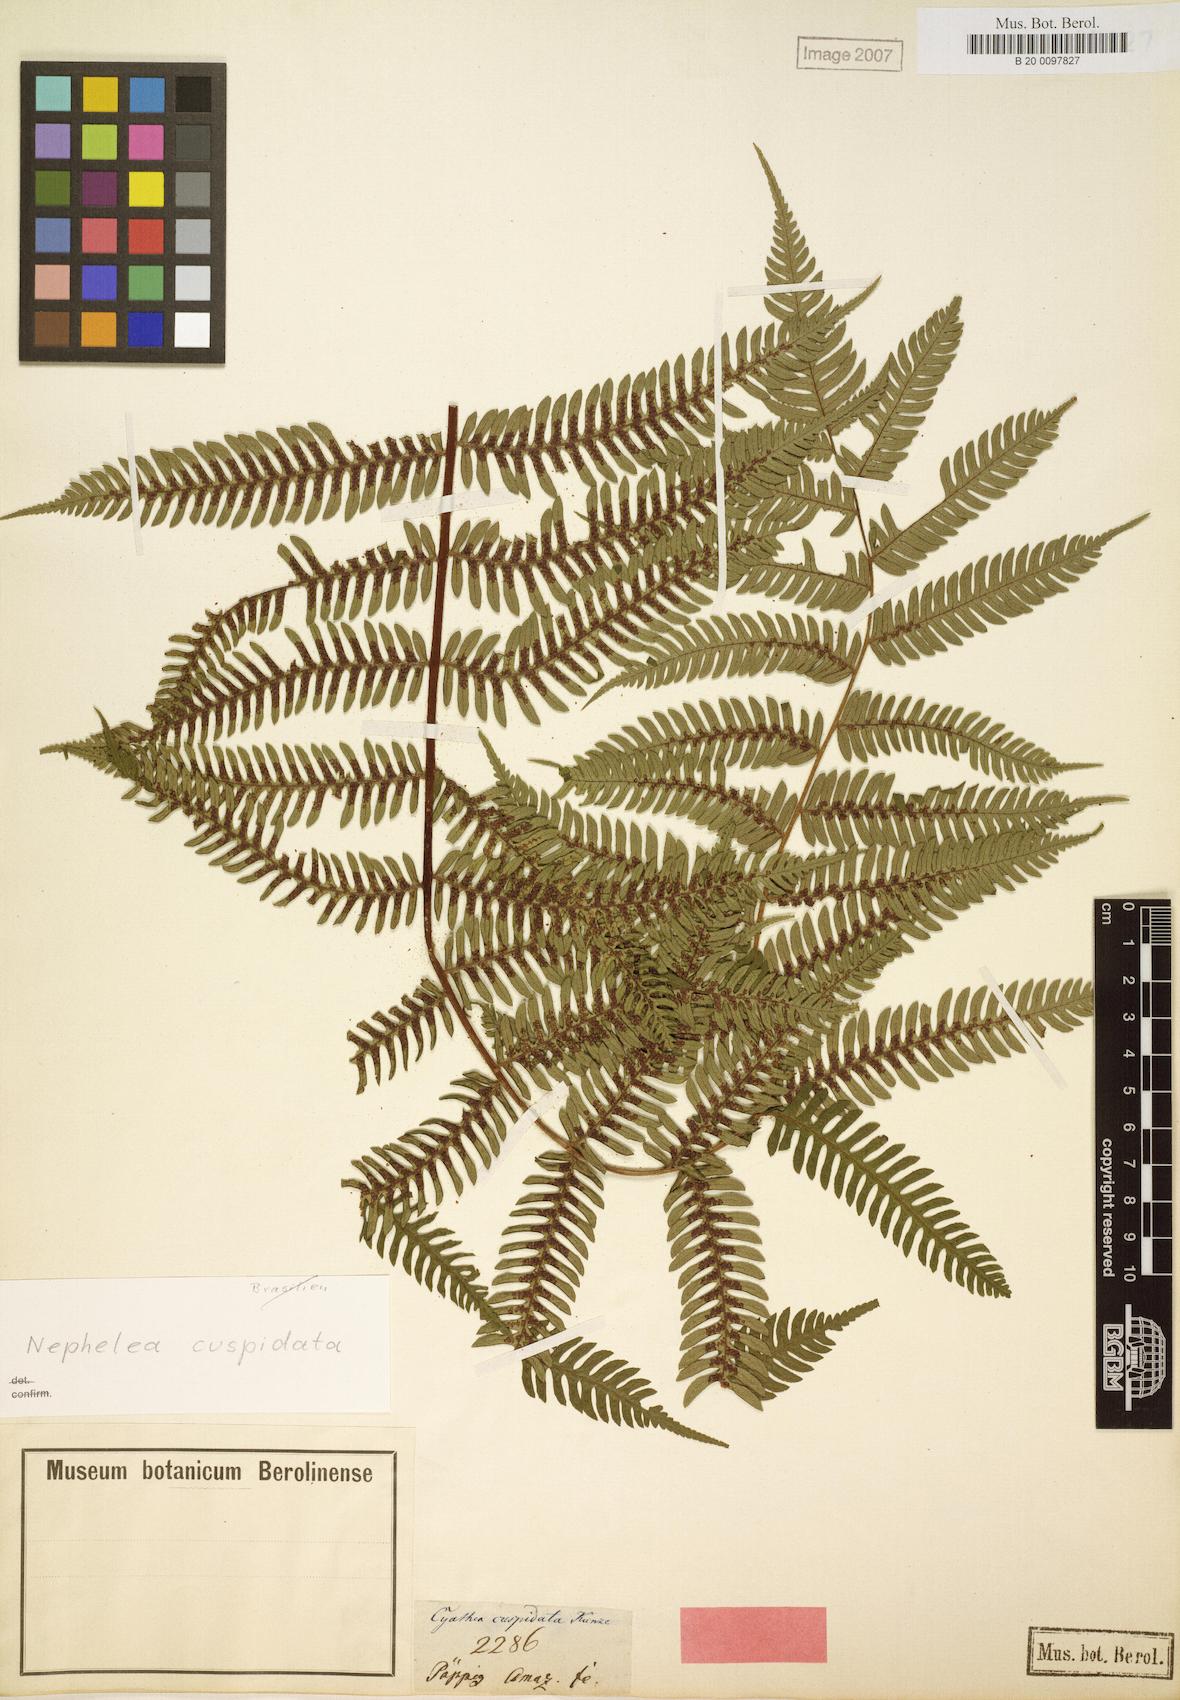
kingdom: Plantae
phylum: Tracheophyta
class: Polypodiopsida
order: Cyatheales
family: Cyatheaceae
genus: Alsophila
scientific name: Alsophila cuspidata
